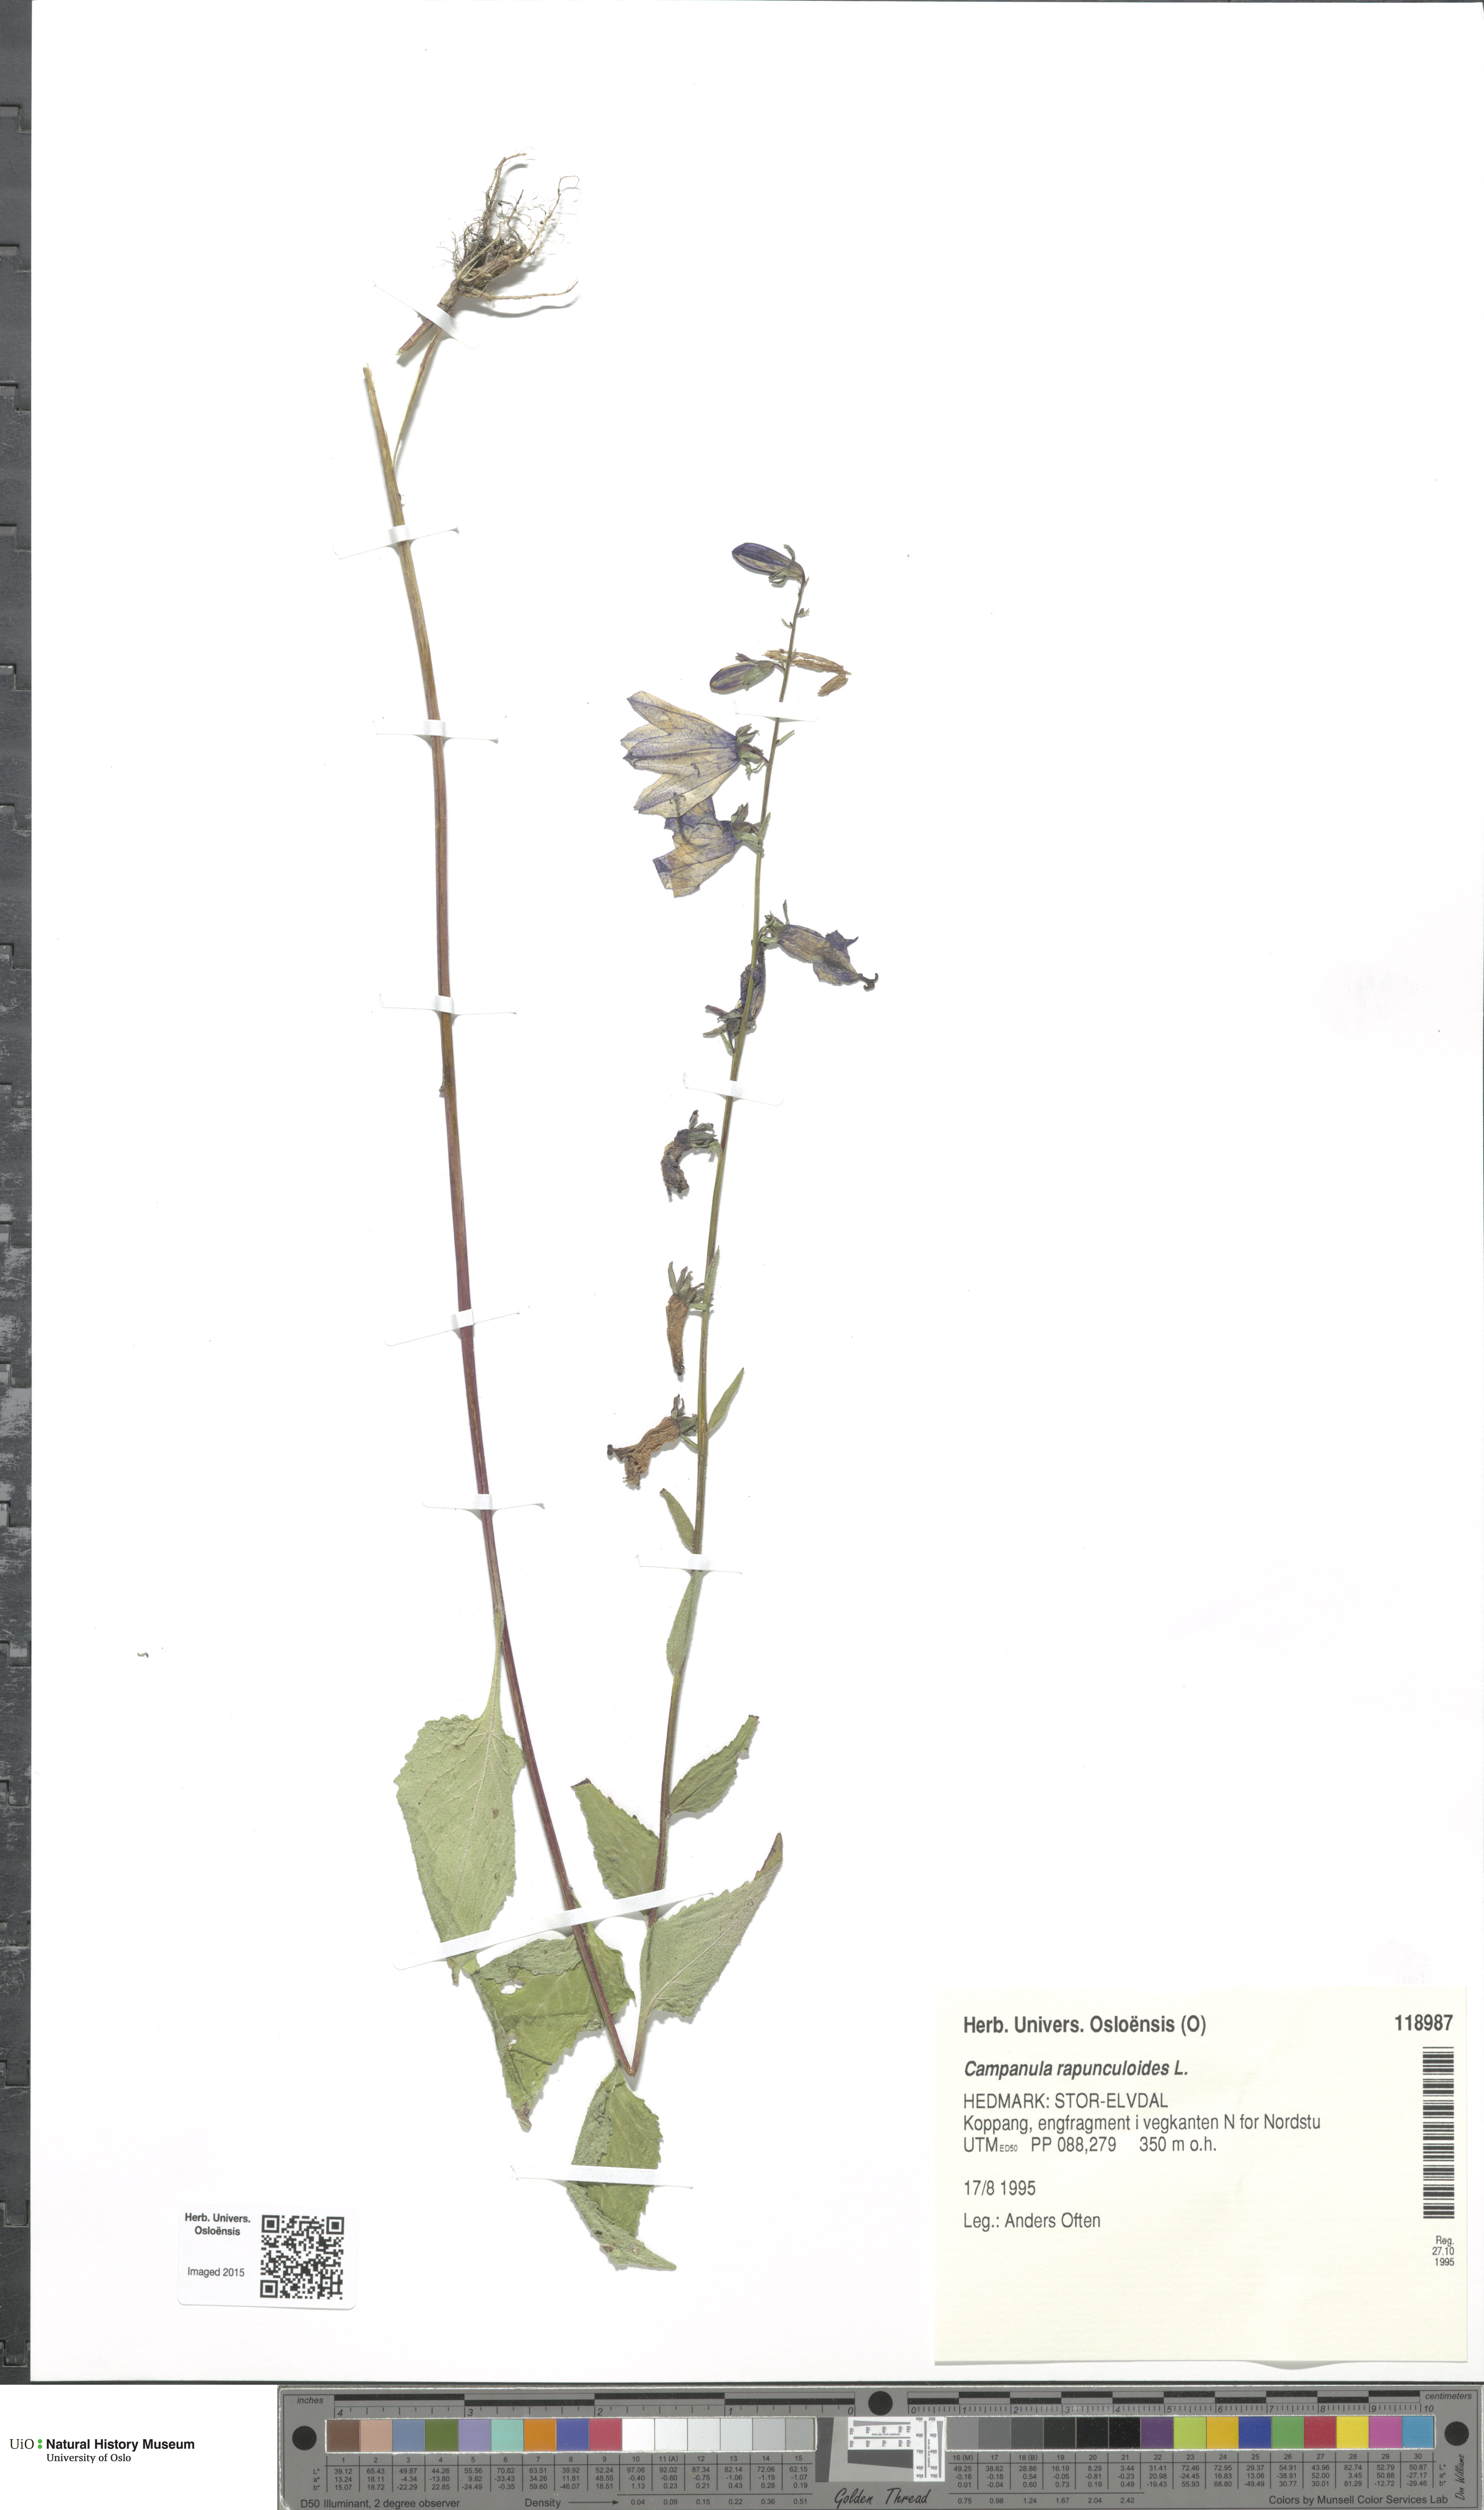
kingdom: Plantae
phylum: Tracheophyta
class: Magnoliopsida
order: Asterales
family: Campanulaceae
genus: Campanula
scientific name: Campanula rapunculoides
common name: Creeping bellflower
